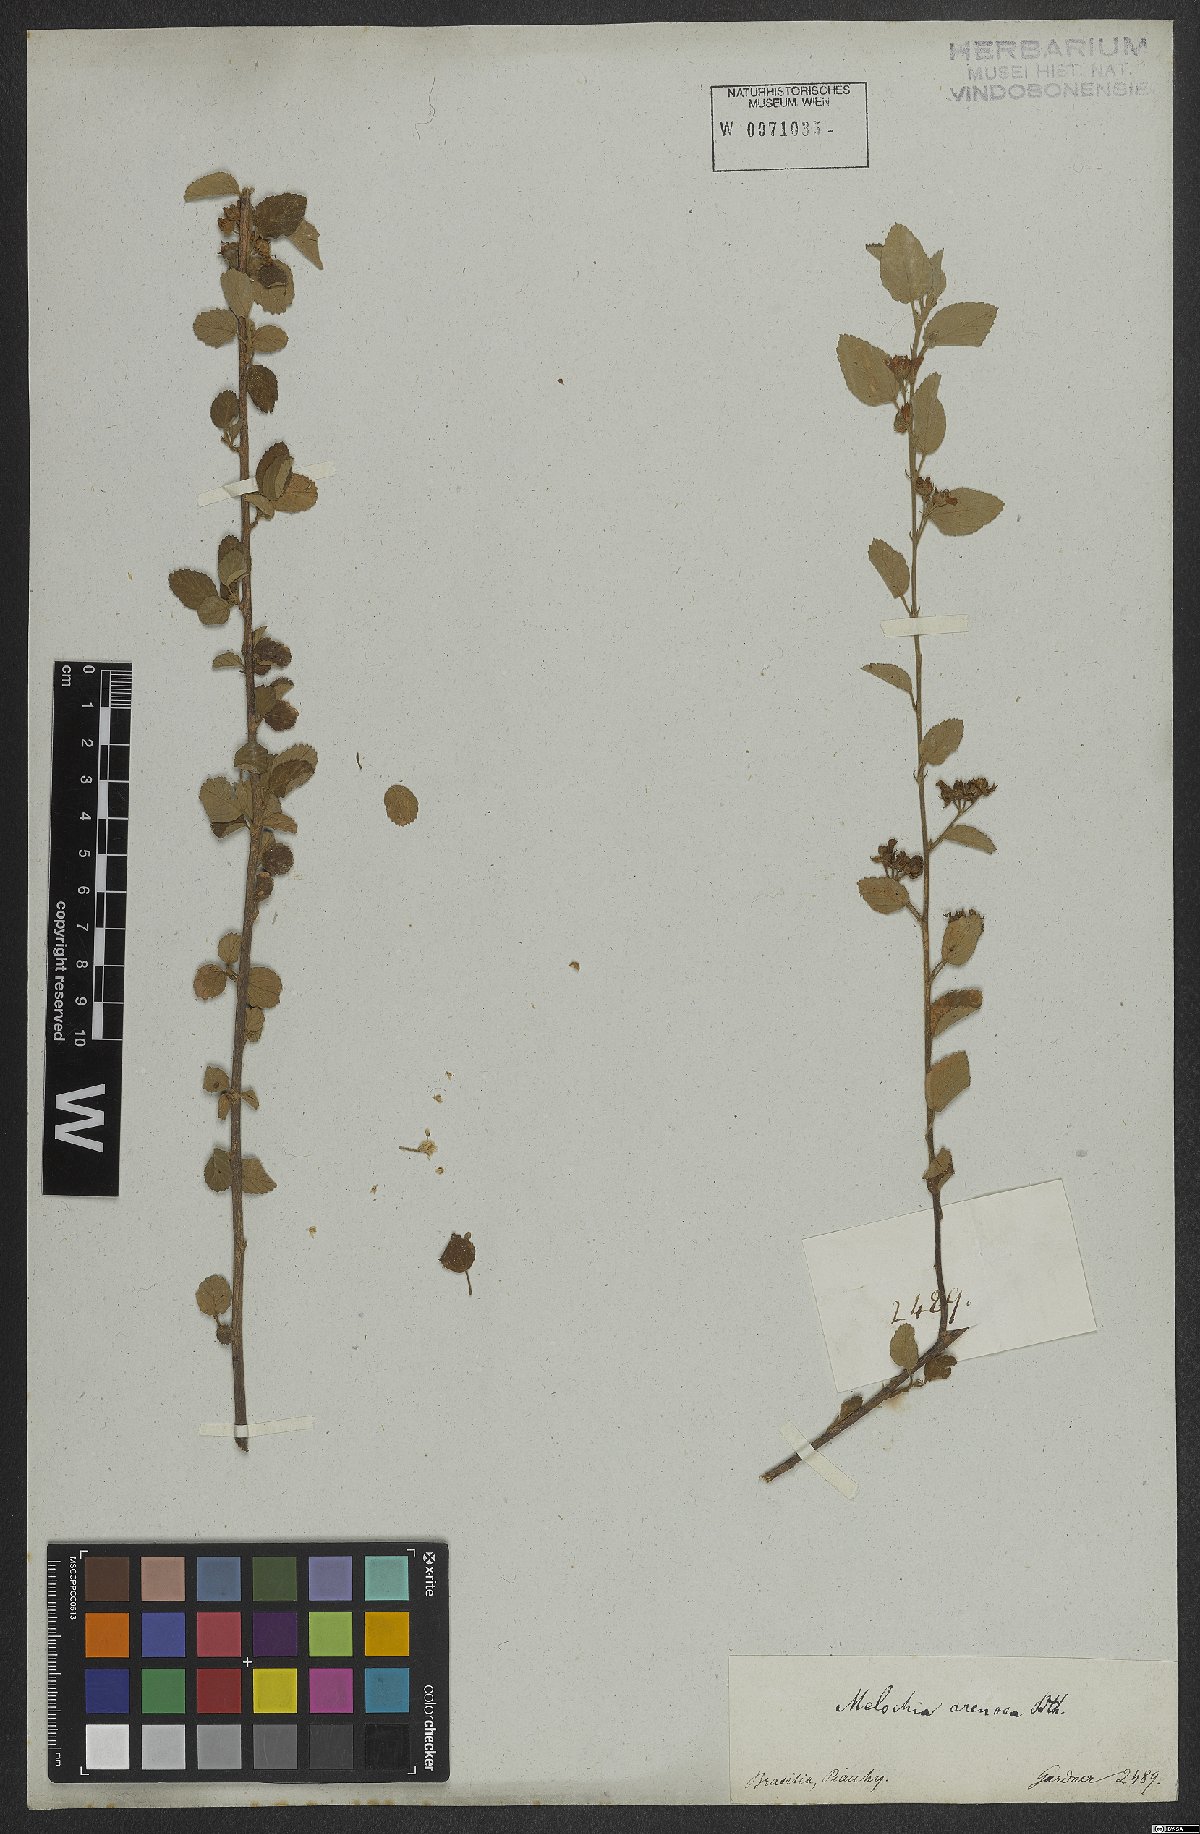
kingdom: Plantae
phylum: Tracheophyta
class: Magnoliopsida
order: Malvales
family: Malvaceae
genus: Melochia
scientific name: Melochia arenosa
